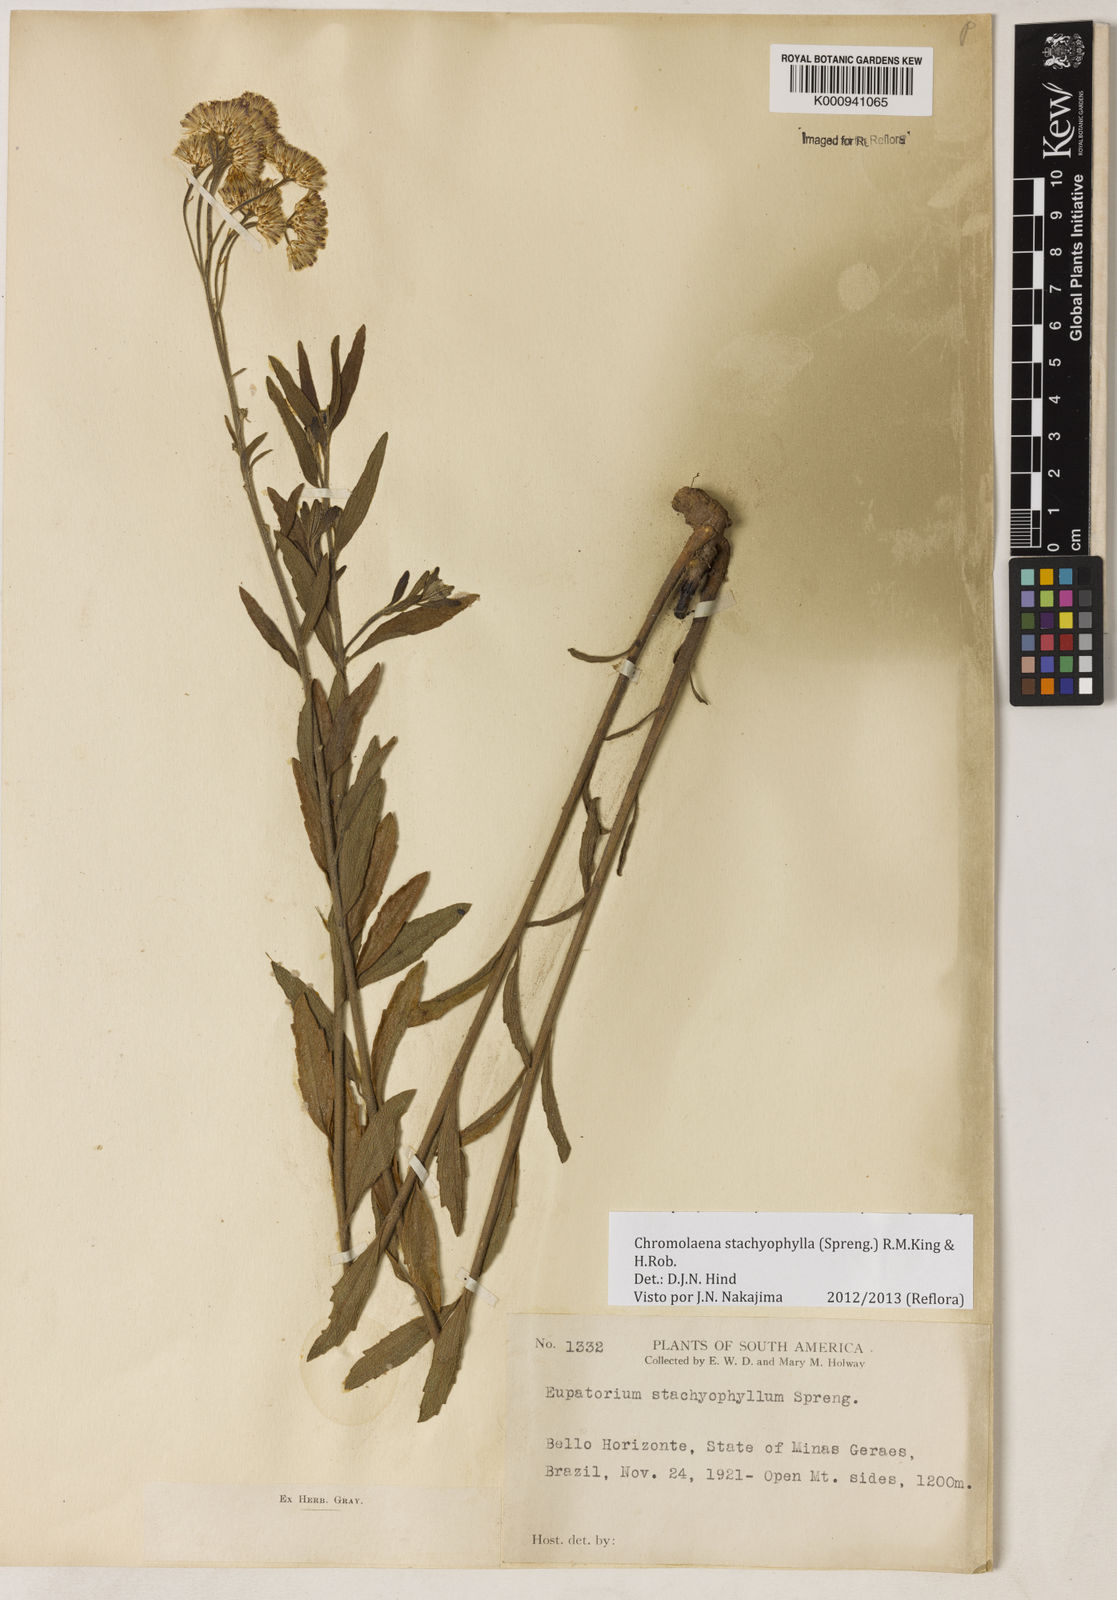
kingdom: Plantae
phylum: Tracheophyta
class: Magnoliopsida
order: Asterales
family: Asteraceae
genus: Chromolaena
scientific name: Chromolaena stachyophylla
